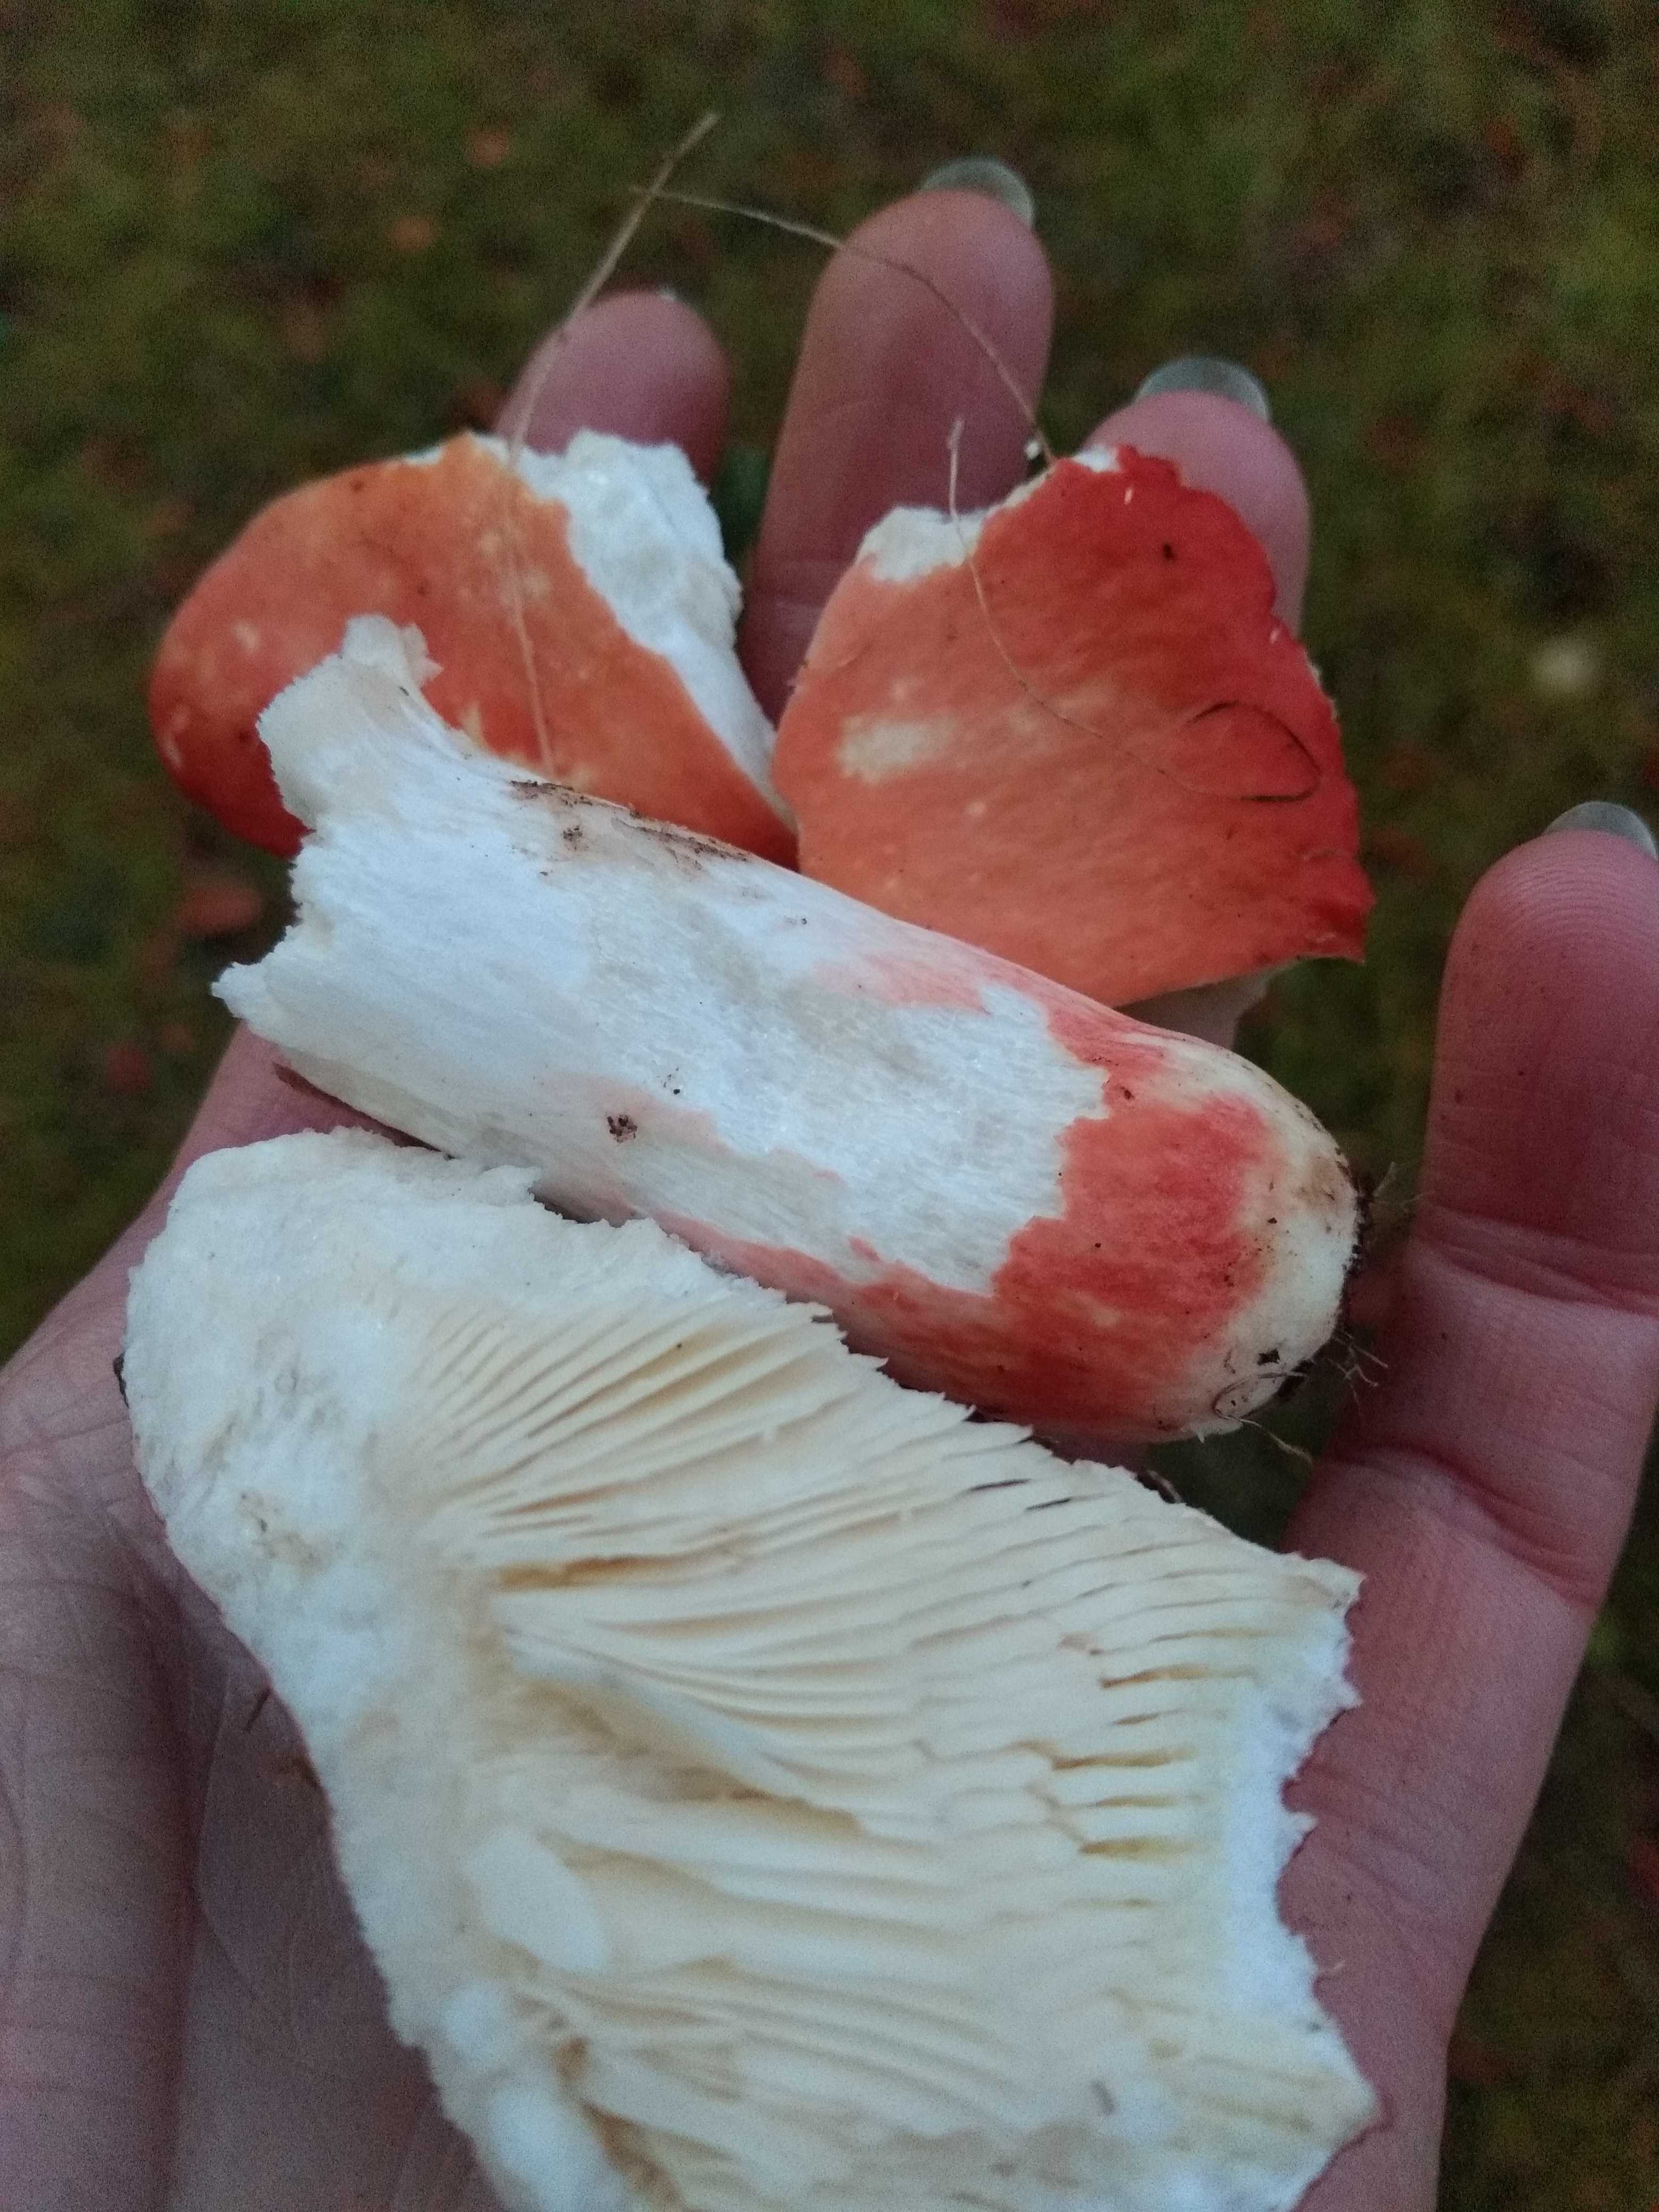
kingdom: Fungi
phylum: Basidiomycota
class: Agaricomycetes
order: Russulales
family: Russulaceae
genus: Russula
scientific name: Russula rosea
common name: fastkødet skørhat
